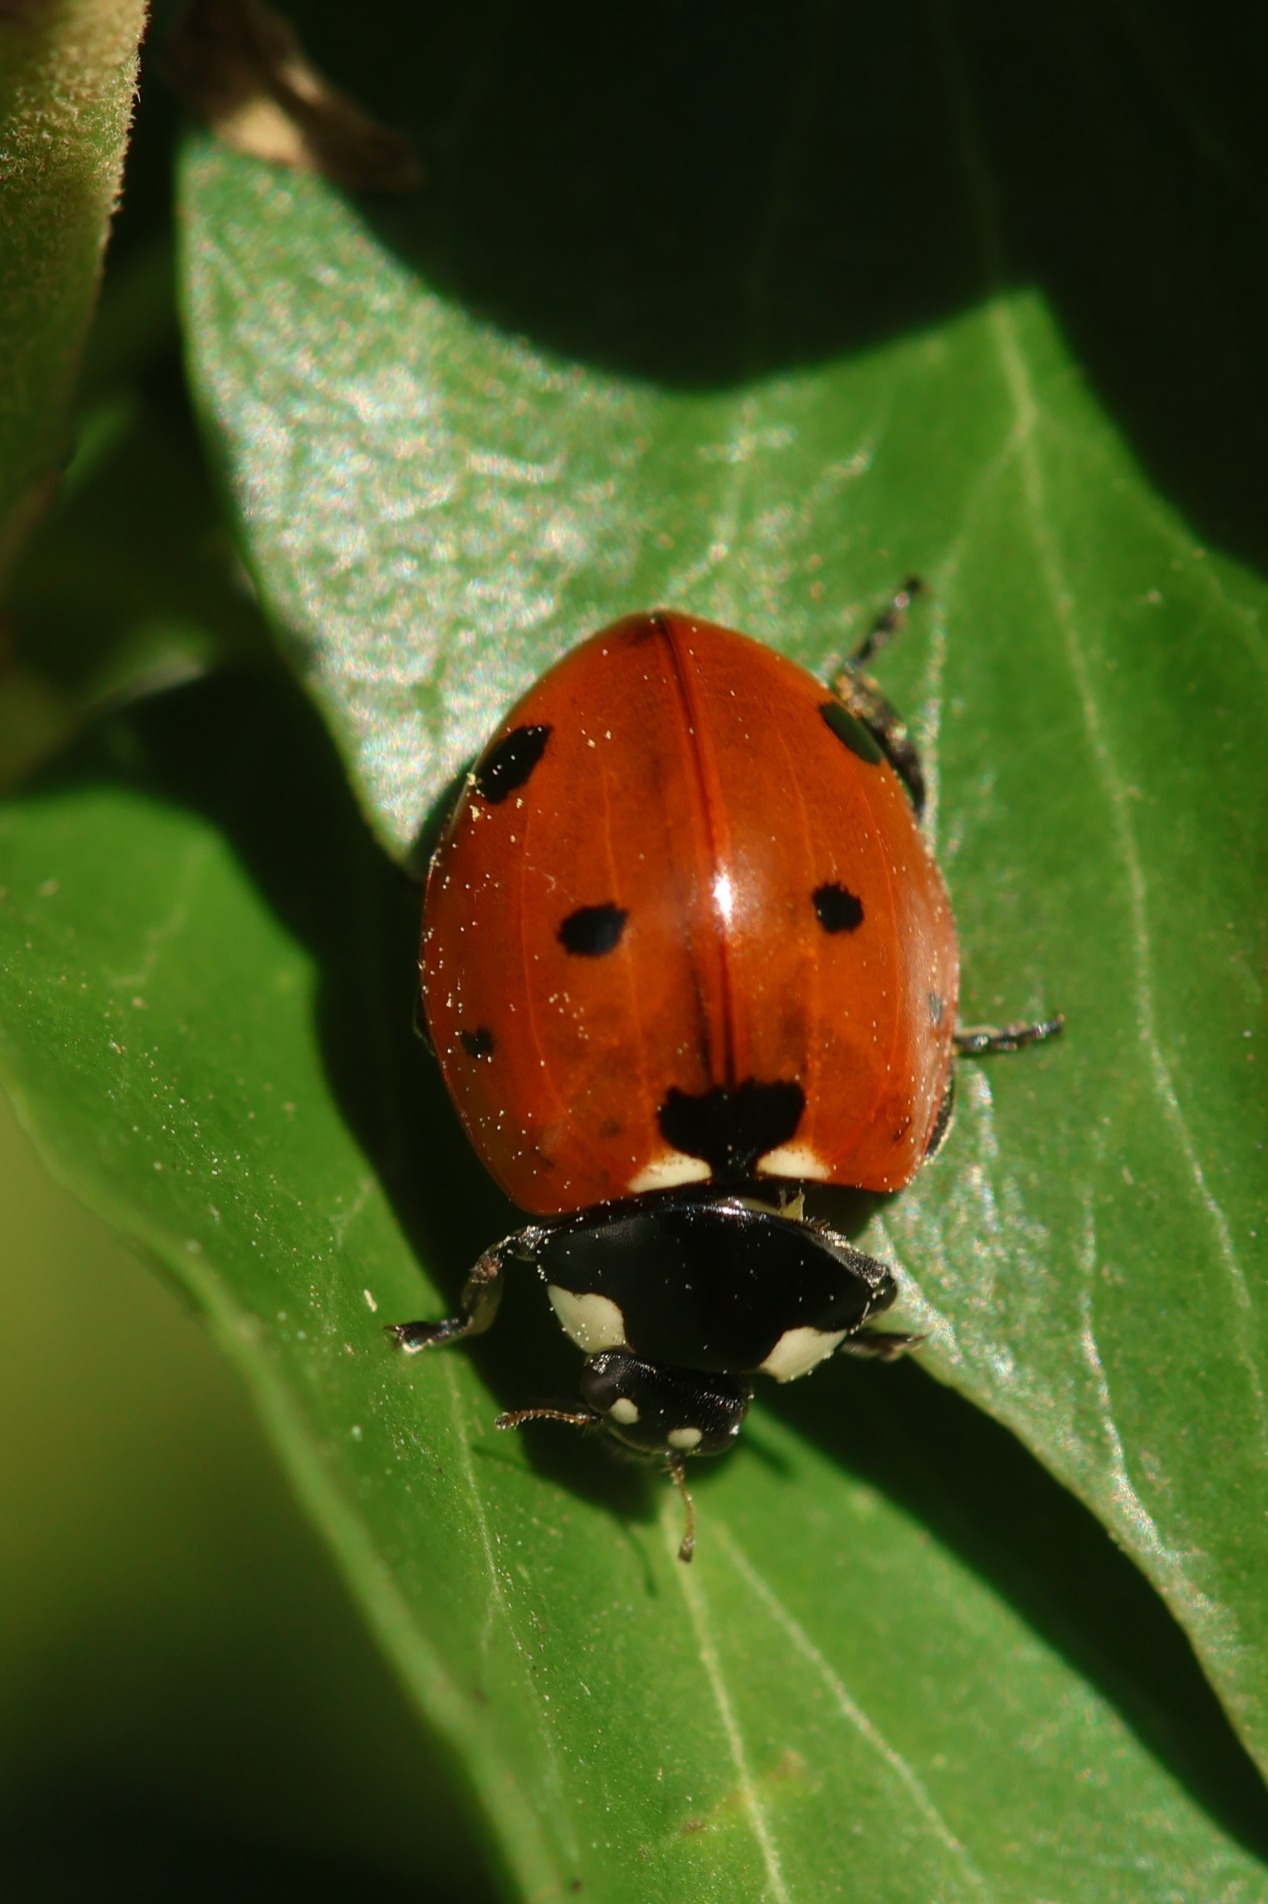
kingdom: Animalia
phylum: Arthropoda
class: Insecta
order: Coleoptera
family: Coccinellidae
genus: Coccinella
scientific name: Coccinella septempunctata
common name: Syvplettet mariehøne
